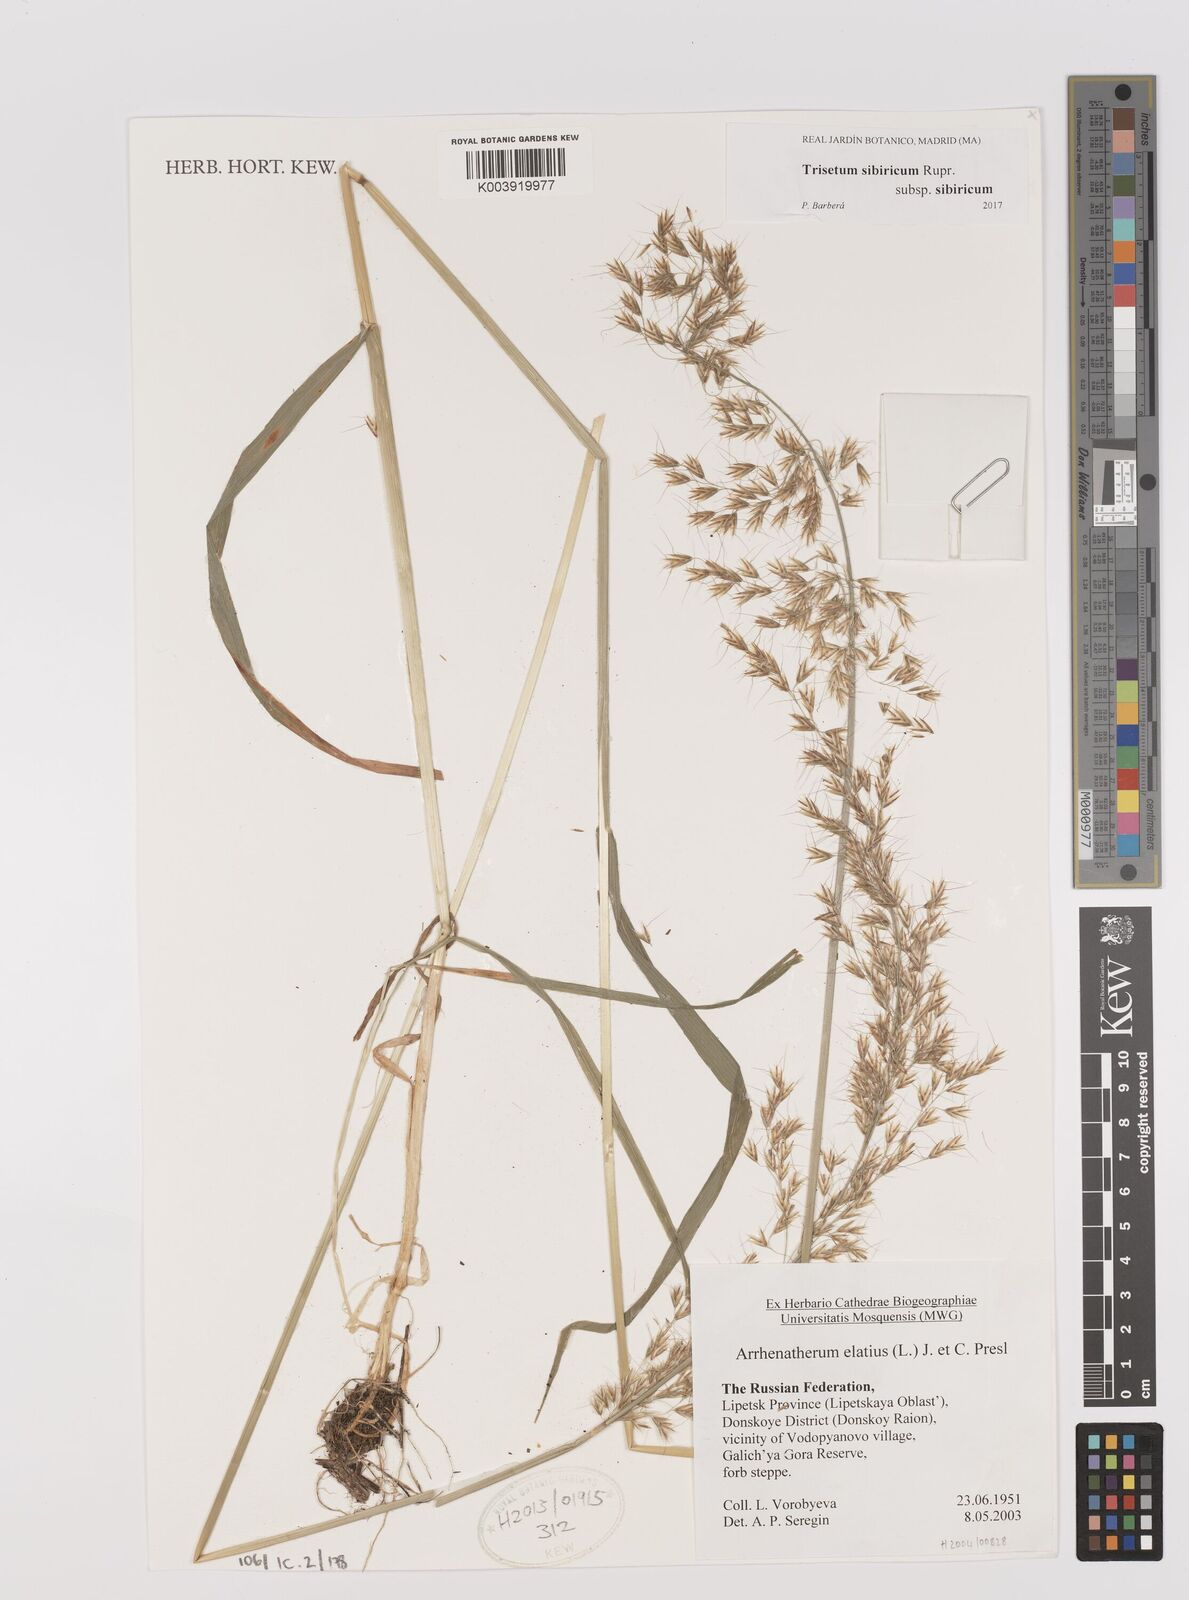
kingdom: Plantae
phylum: Tracheophyta
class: Liliopsida
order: Poales
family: Poaceae
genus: Sibirotrisetum
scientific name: Sibirotrisetum sibiricum
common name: Siberian false oat
